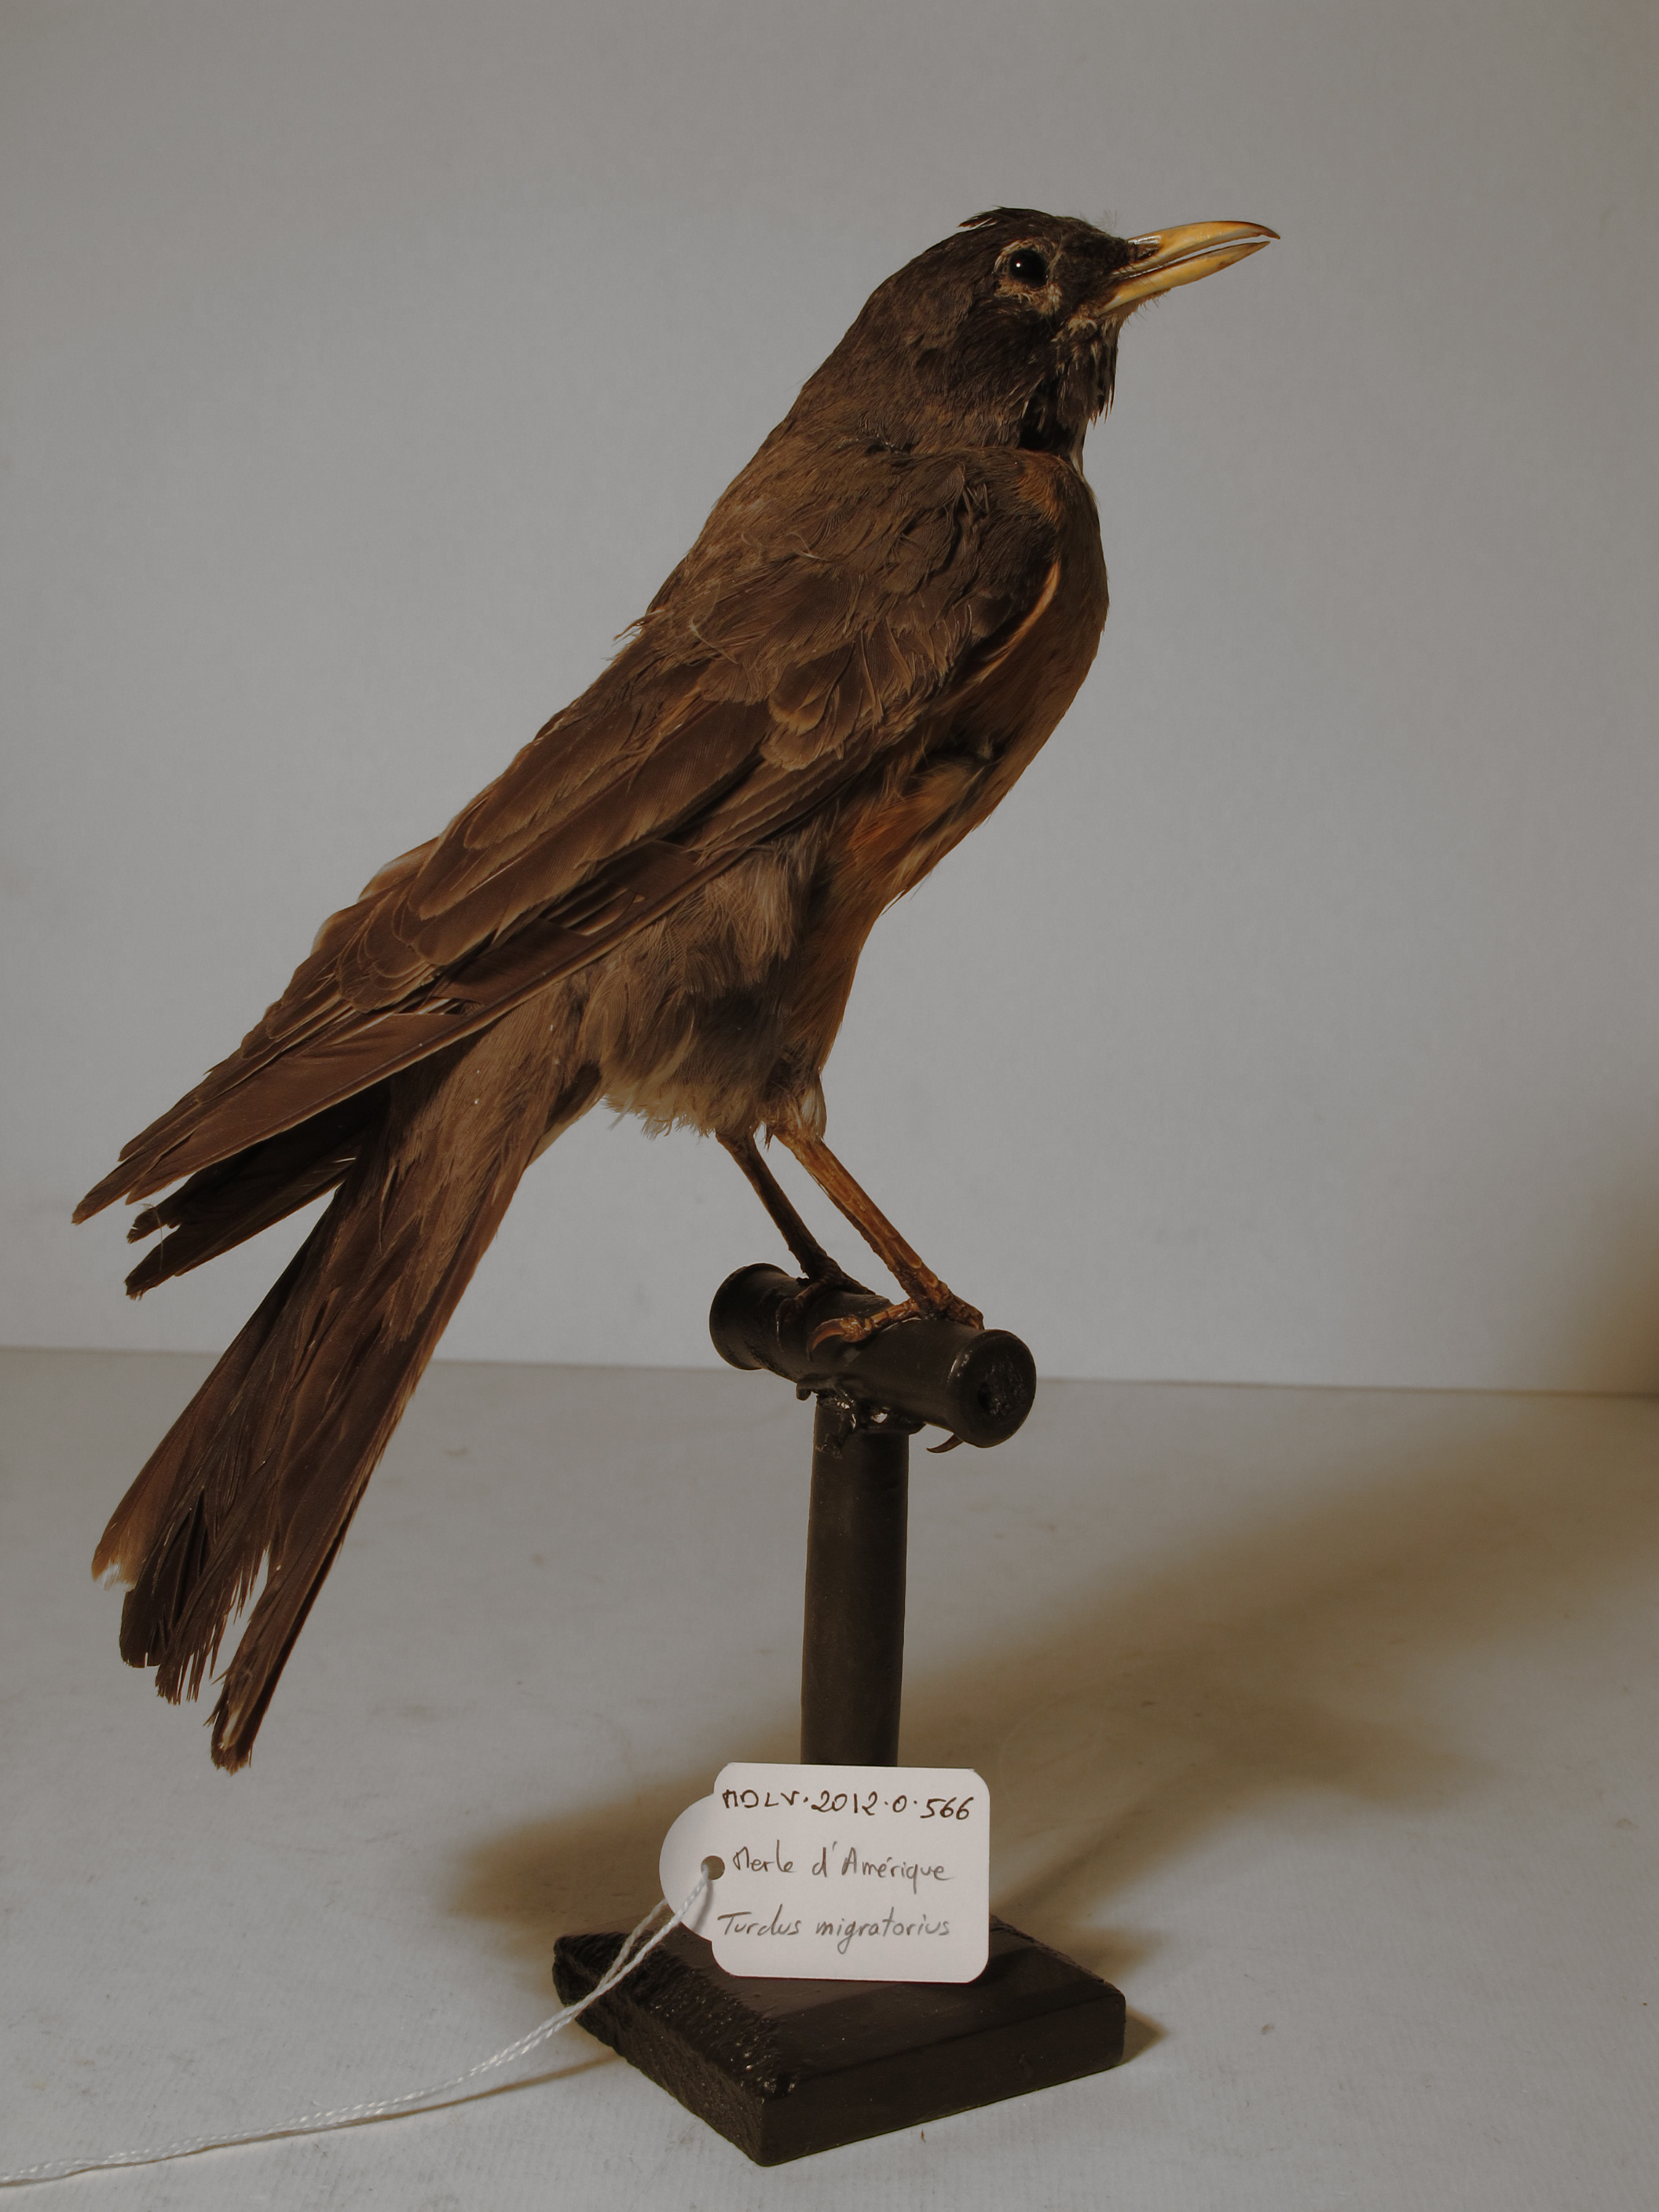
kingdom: Animalia
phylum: Chordata
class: Aves
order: Passeriformes
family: Turdidae
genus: Turdus
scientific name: Turdus migratorius
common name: American Robin
